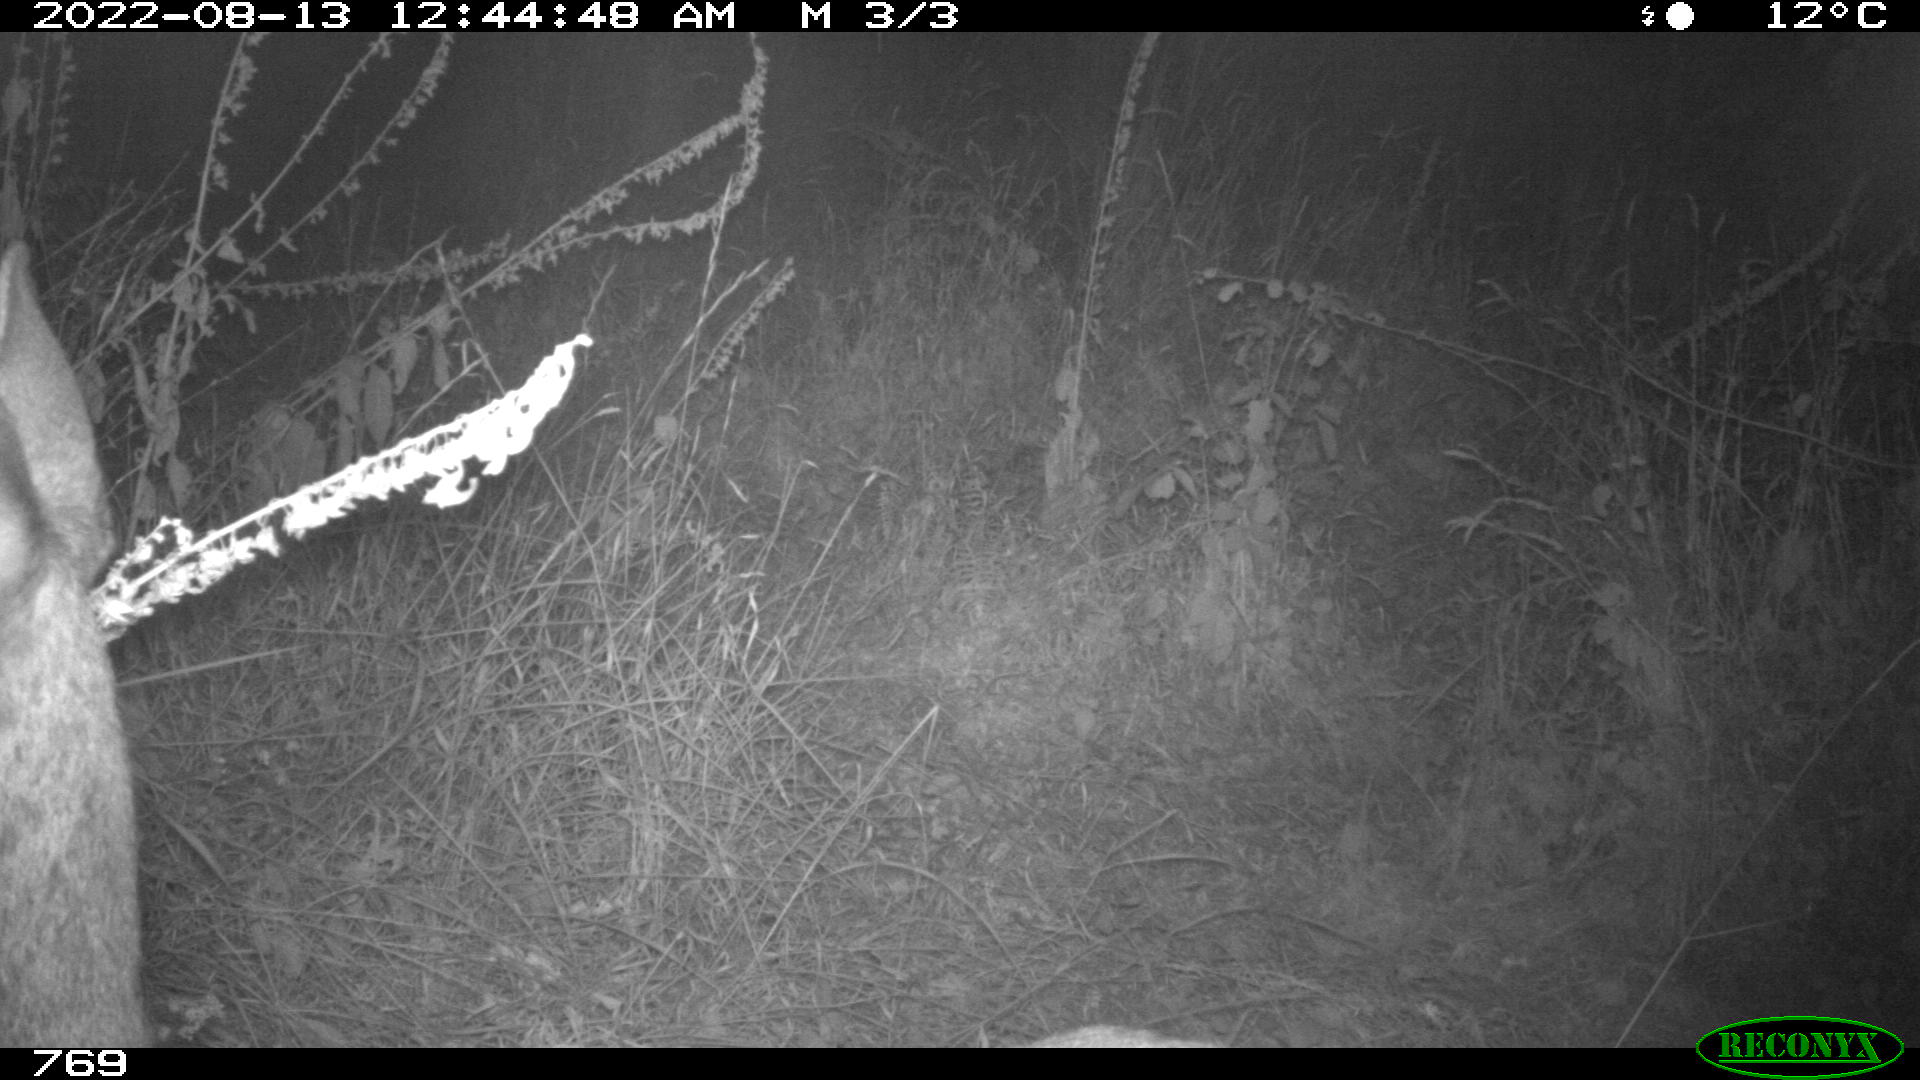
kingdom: Animalia
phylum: Chordata
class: Mammalia
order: Artiodactyla
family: Cervidae
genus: Capreolus
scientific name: Capreolus capreolus
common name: Western roe deer
